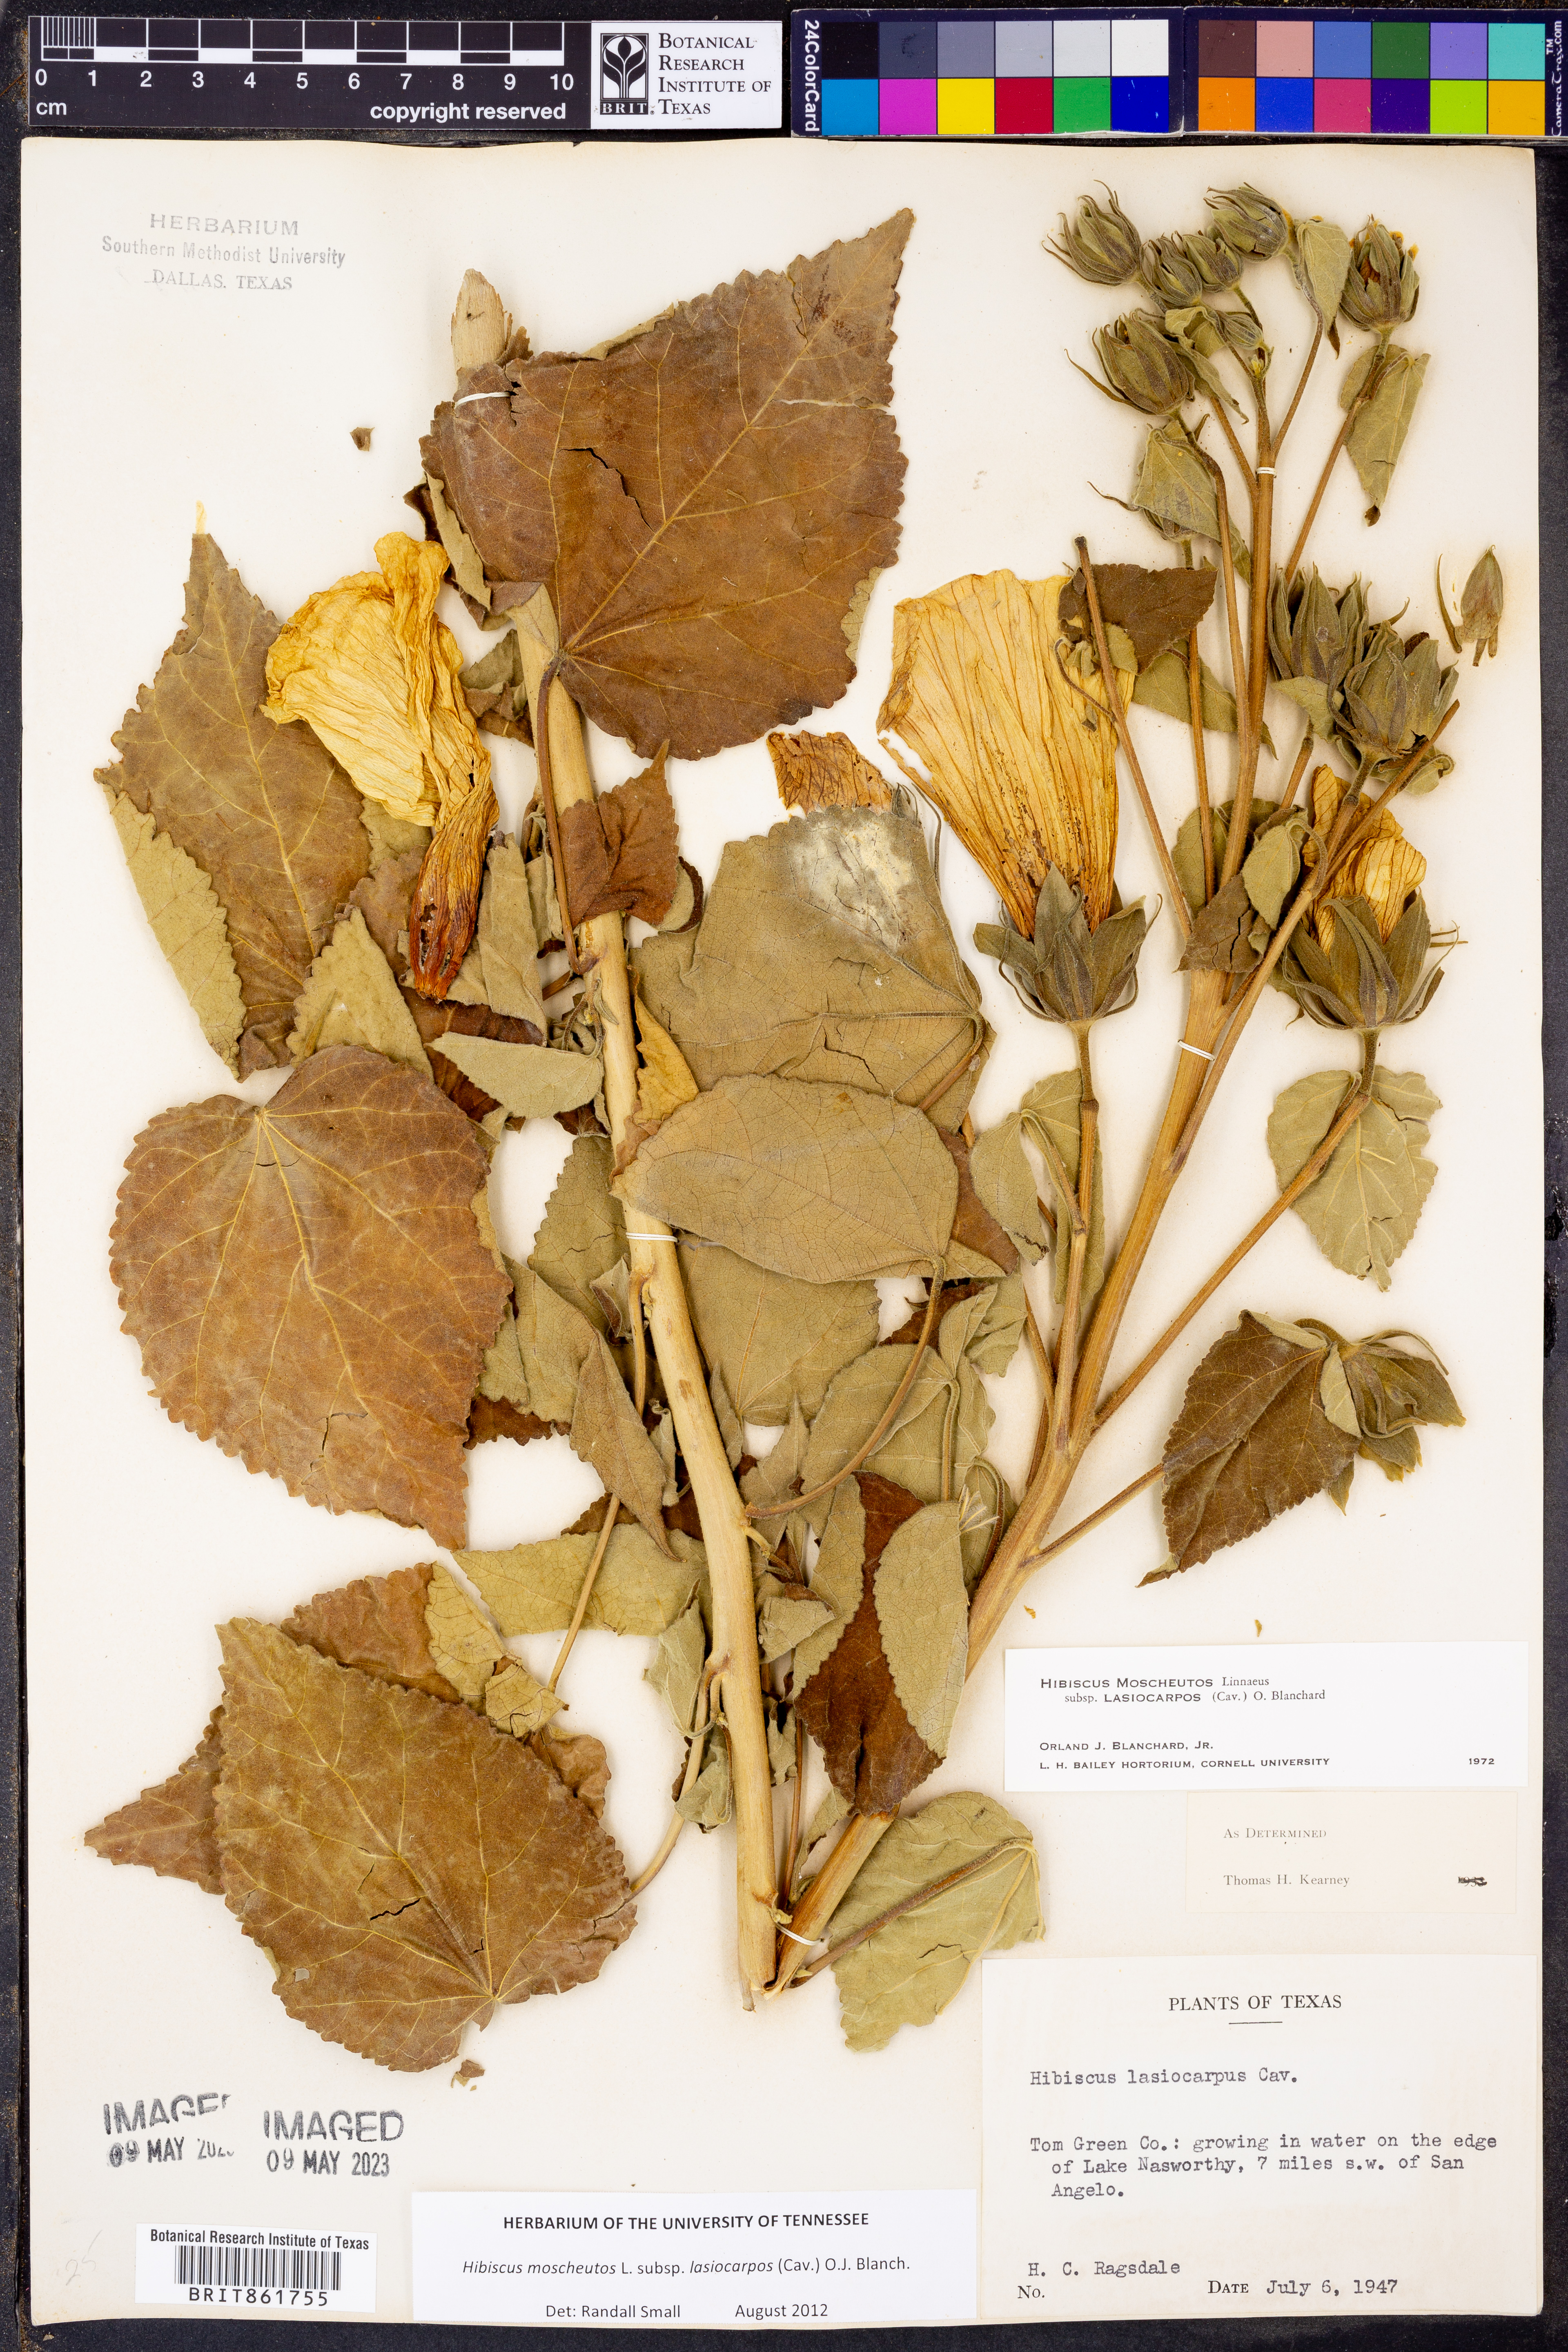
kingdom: Plantae
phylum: Tracheophyta
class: Magnoliopsida
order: Malvales
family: Malvaceae
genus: Hibiscus
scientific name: Hibiscus moscheutos
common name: Common rose-mallow
